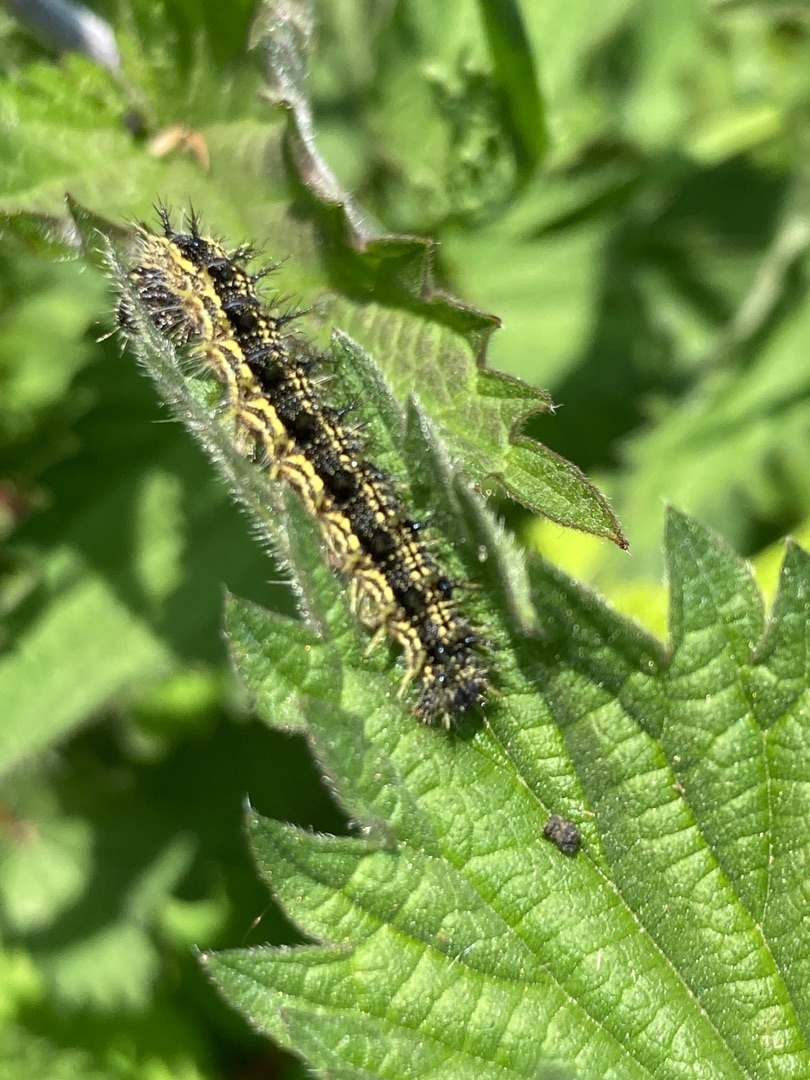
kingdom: Animalia
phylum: Arthropoda
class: Insecta
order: Lepidoptera
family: Nymphalidae
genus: Aglais
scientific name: Aglais urticae
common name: Nældens takvinge
